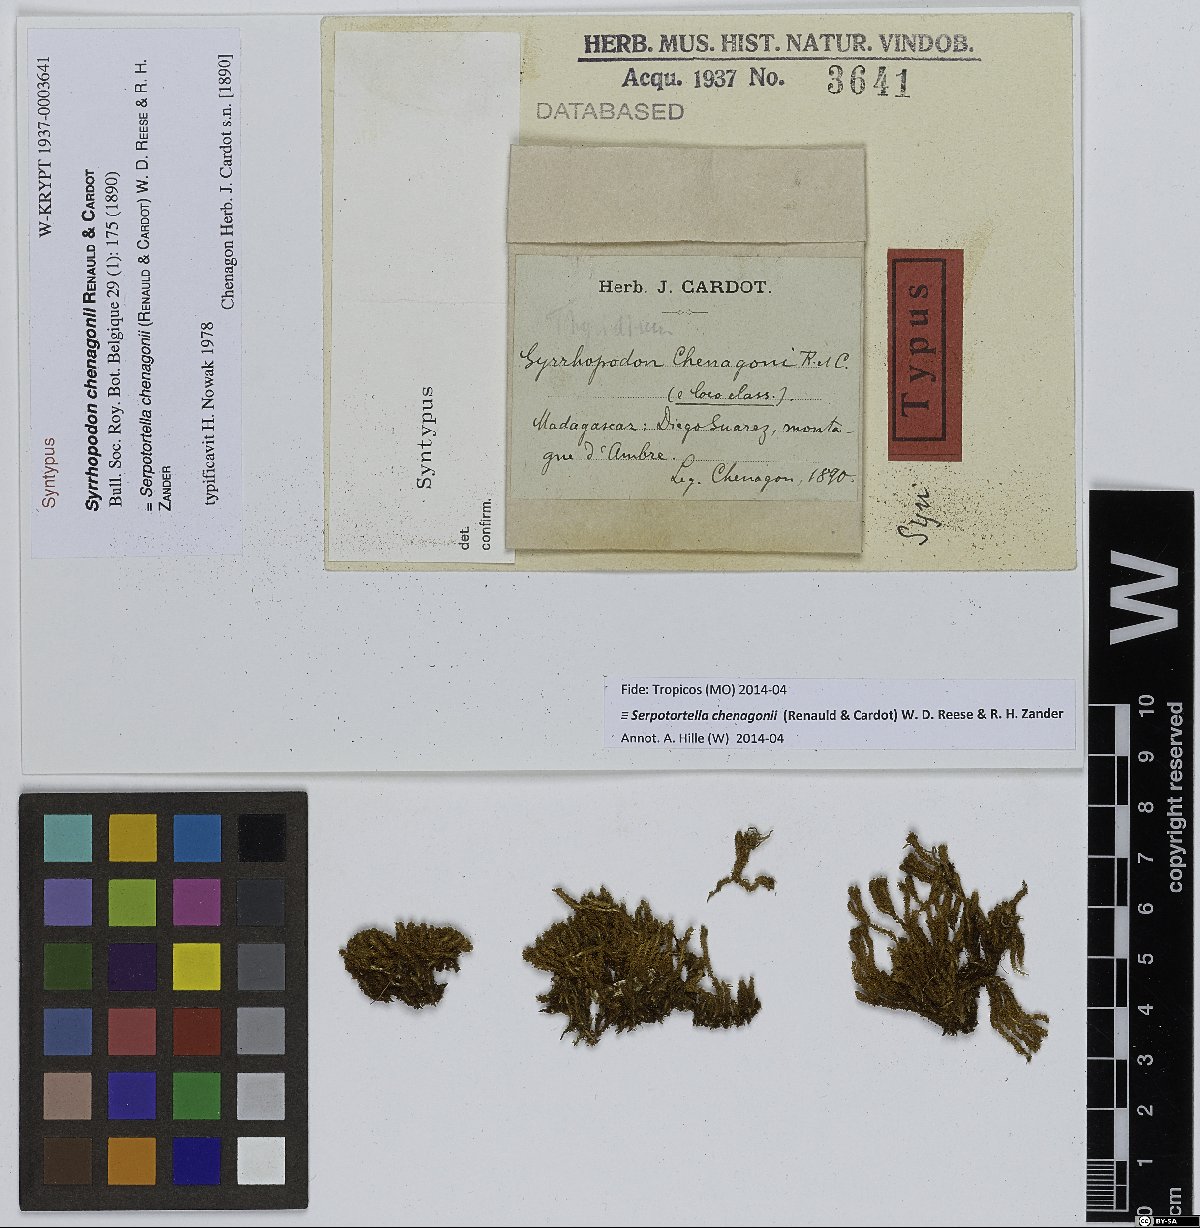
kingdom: Plantae
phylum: Bryophyta
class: Bryopsida
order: Dicranales
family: Serpotortellaceae
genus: Serpotortella
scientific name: Serpotortella chenagonii
